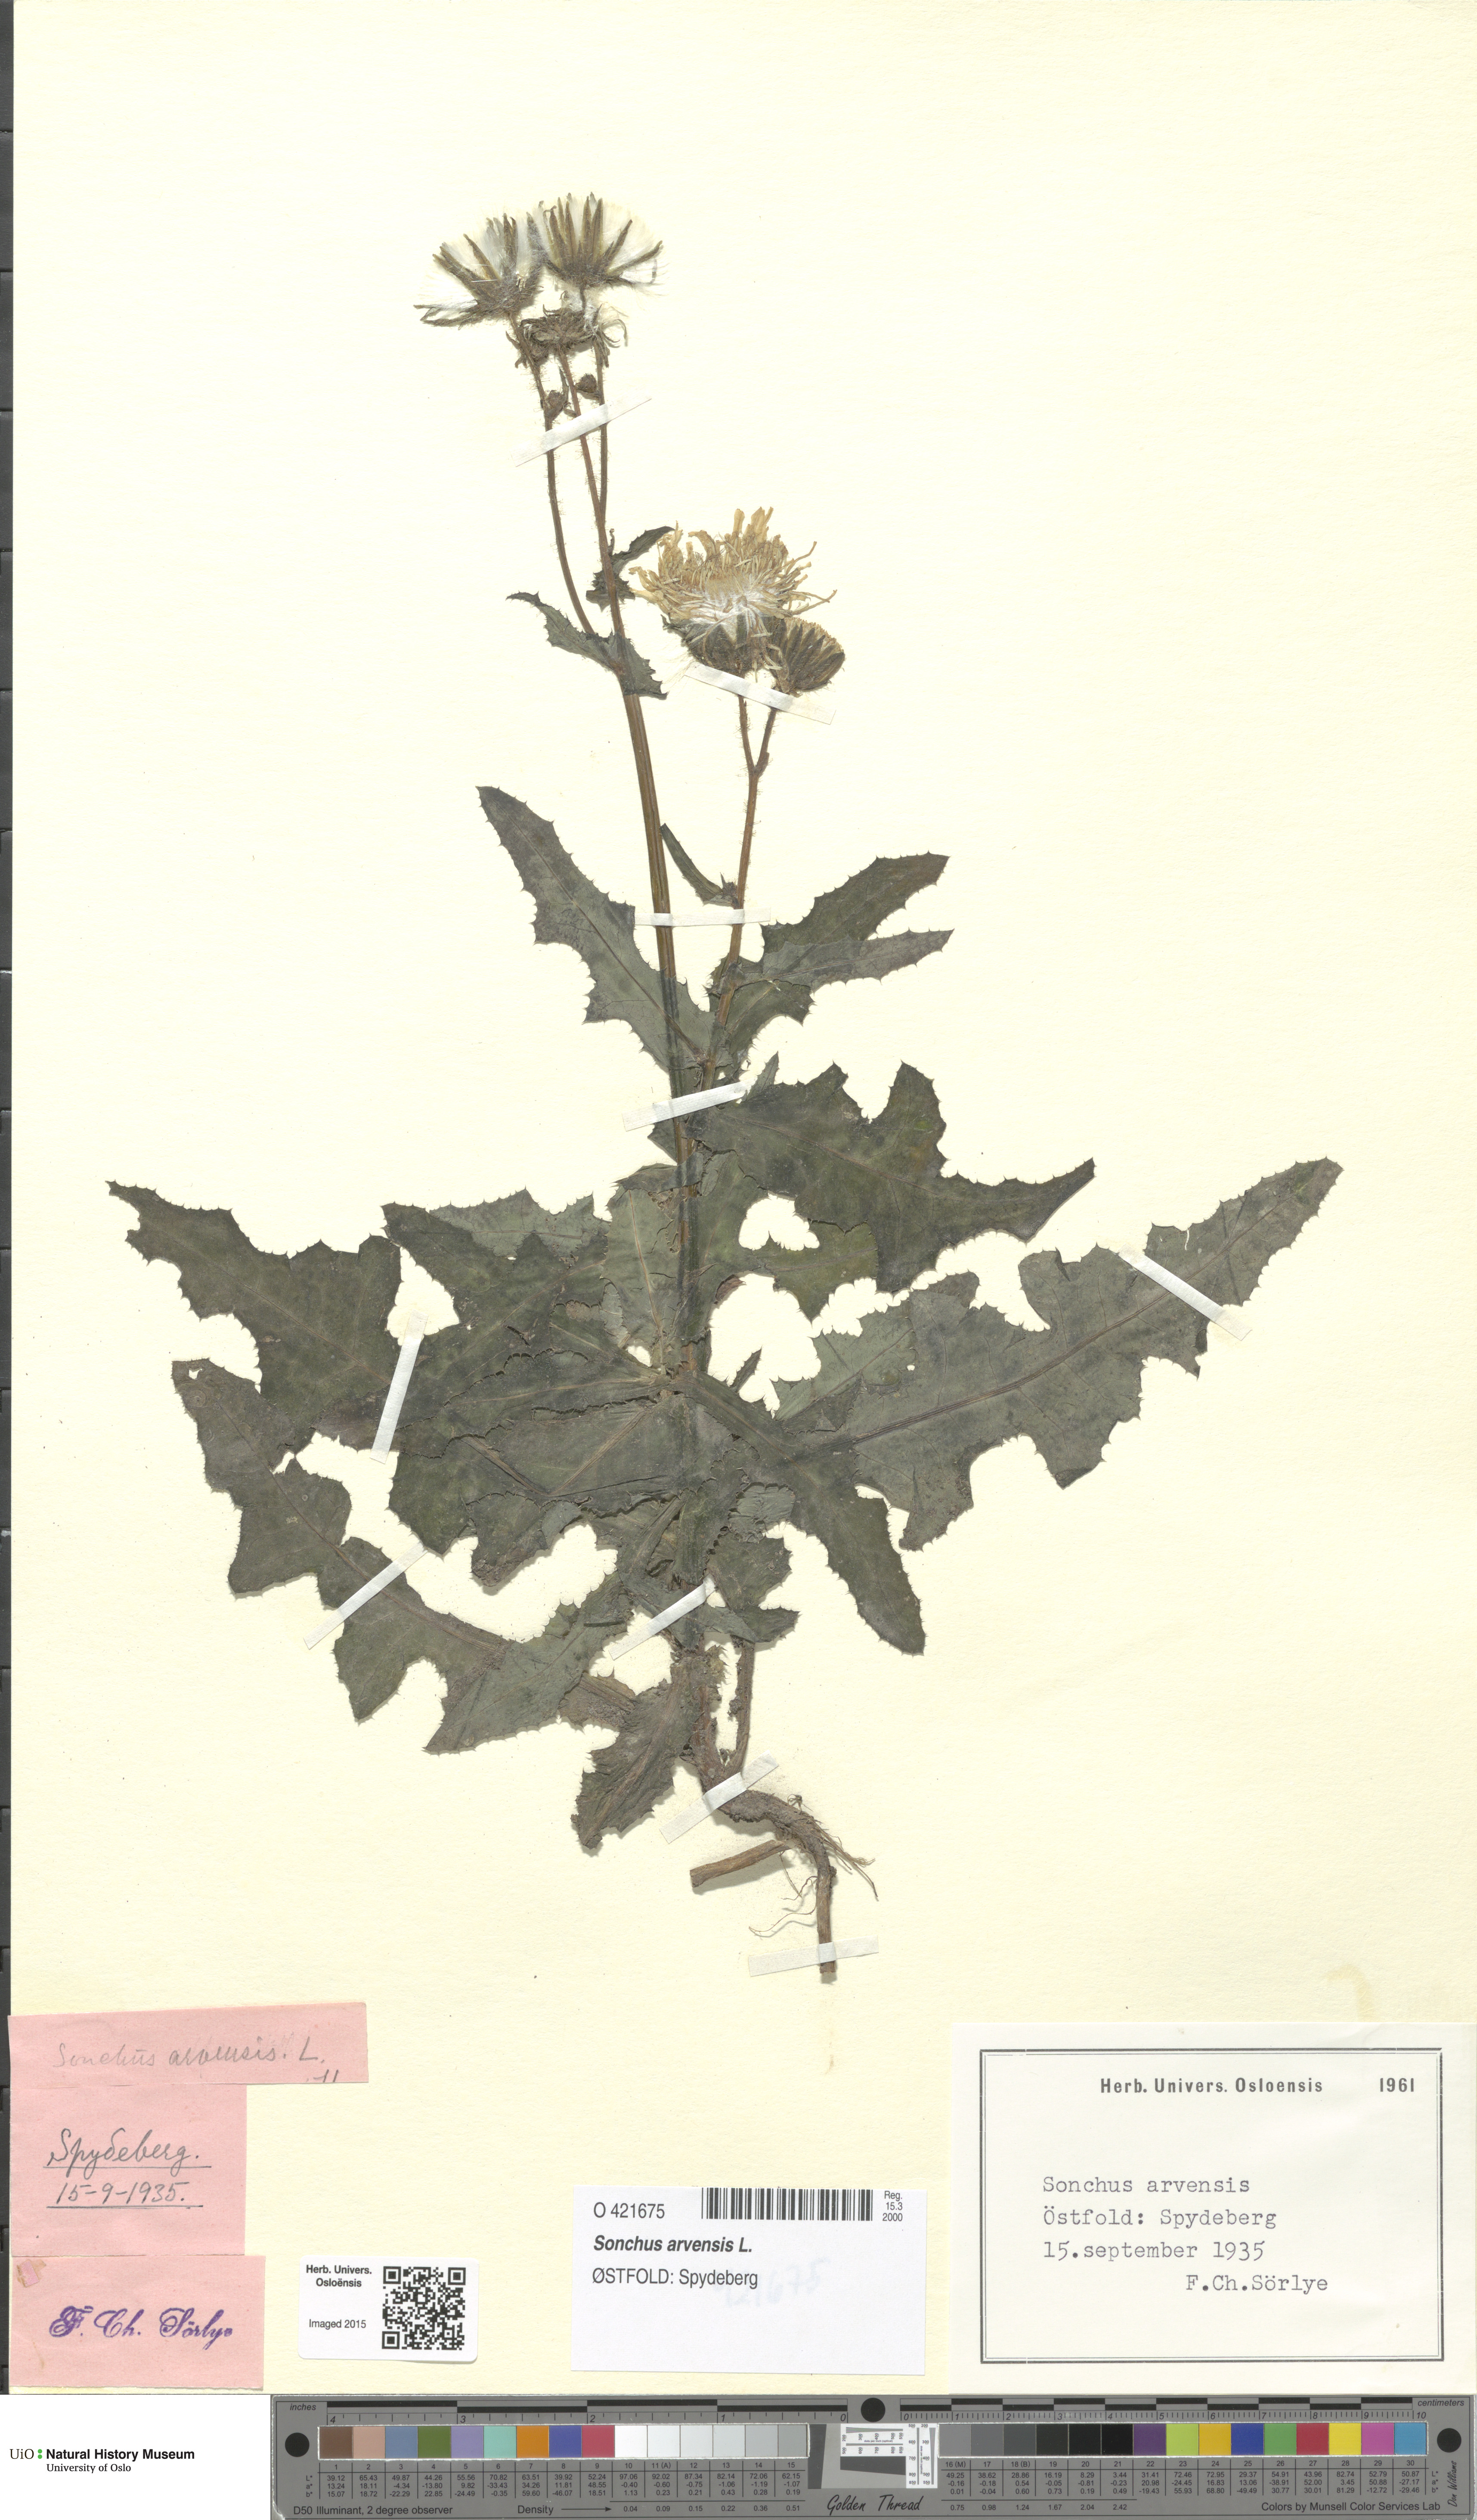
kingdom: Plantae
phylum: Tracheophyta
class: Magnoliopsida
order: Asterales
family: Asteraceae
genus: Sonchus
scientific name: Sonchus arvensis
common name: Perennial sow-thistle
